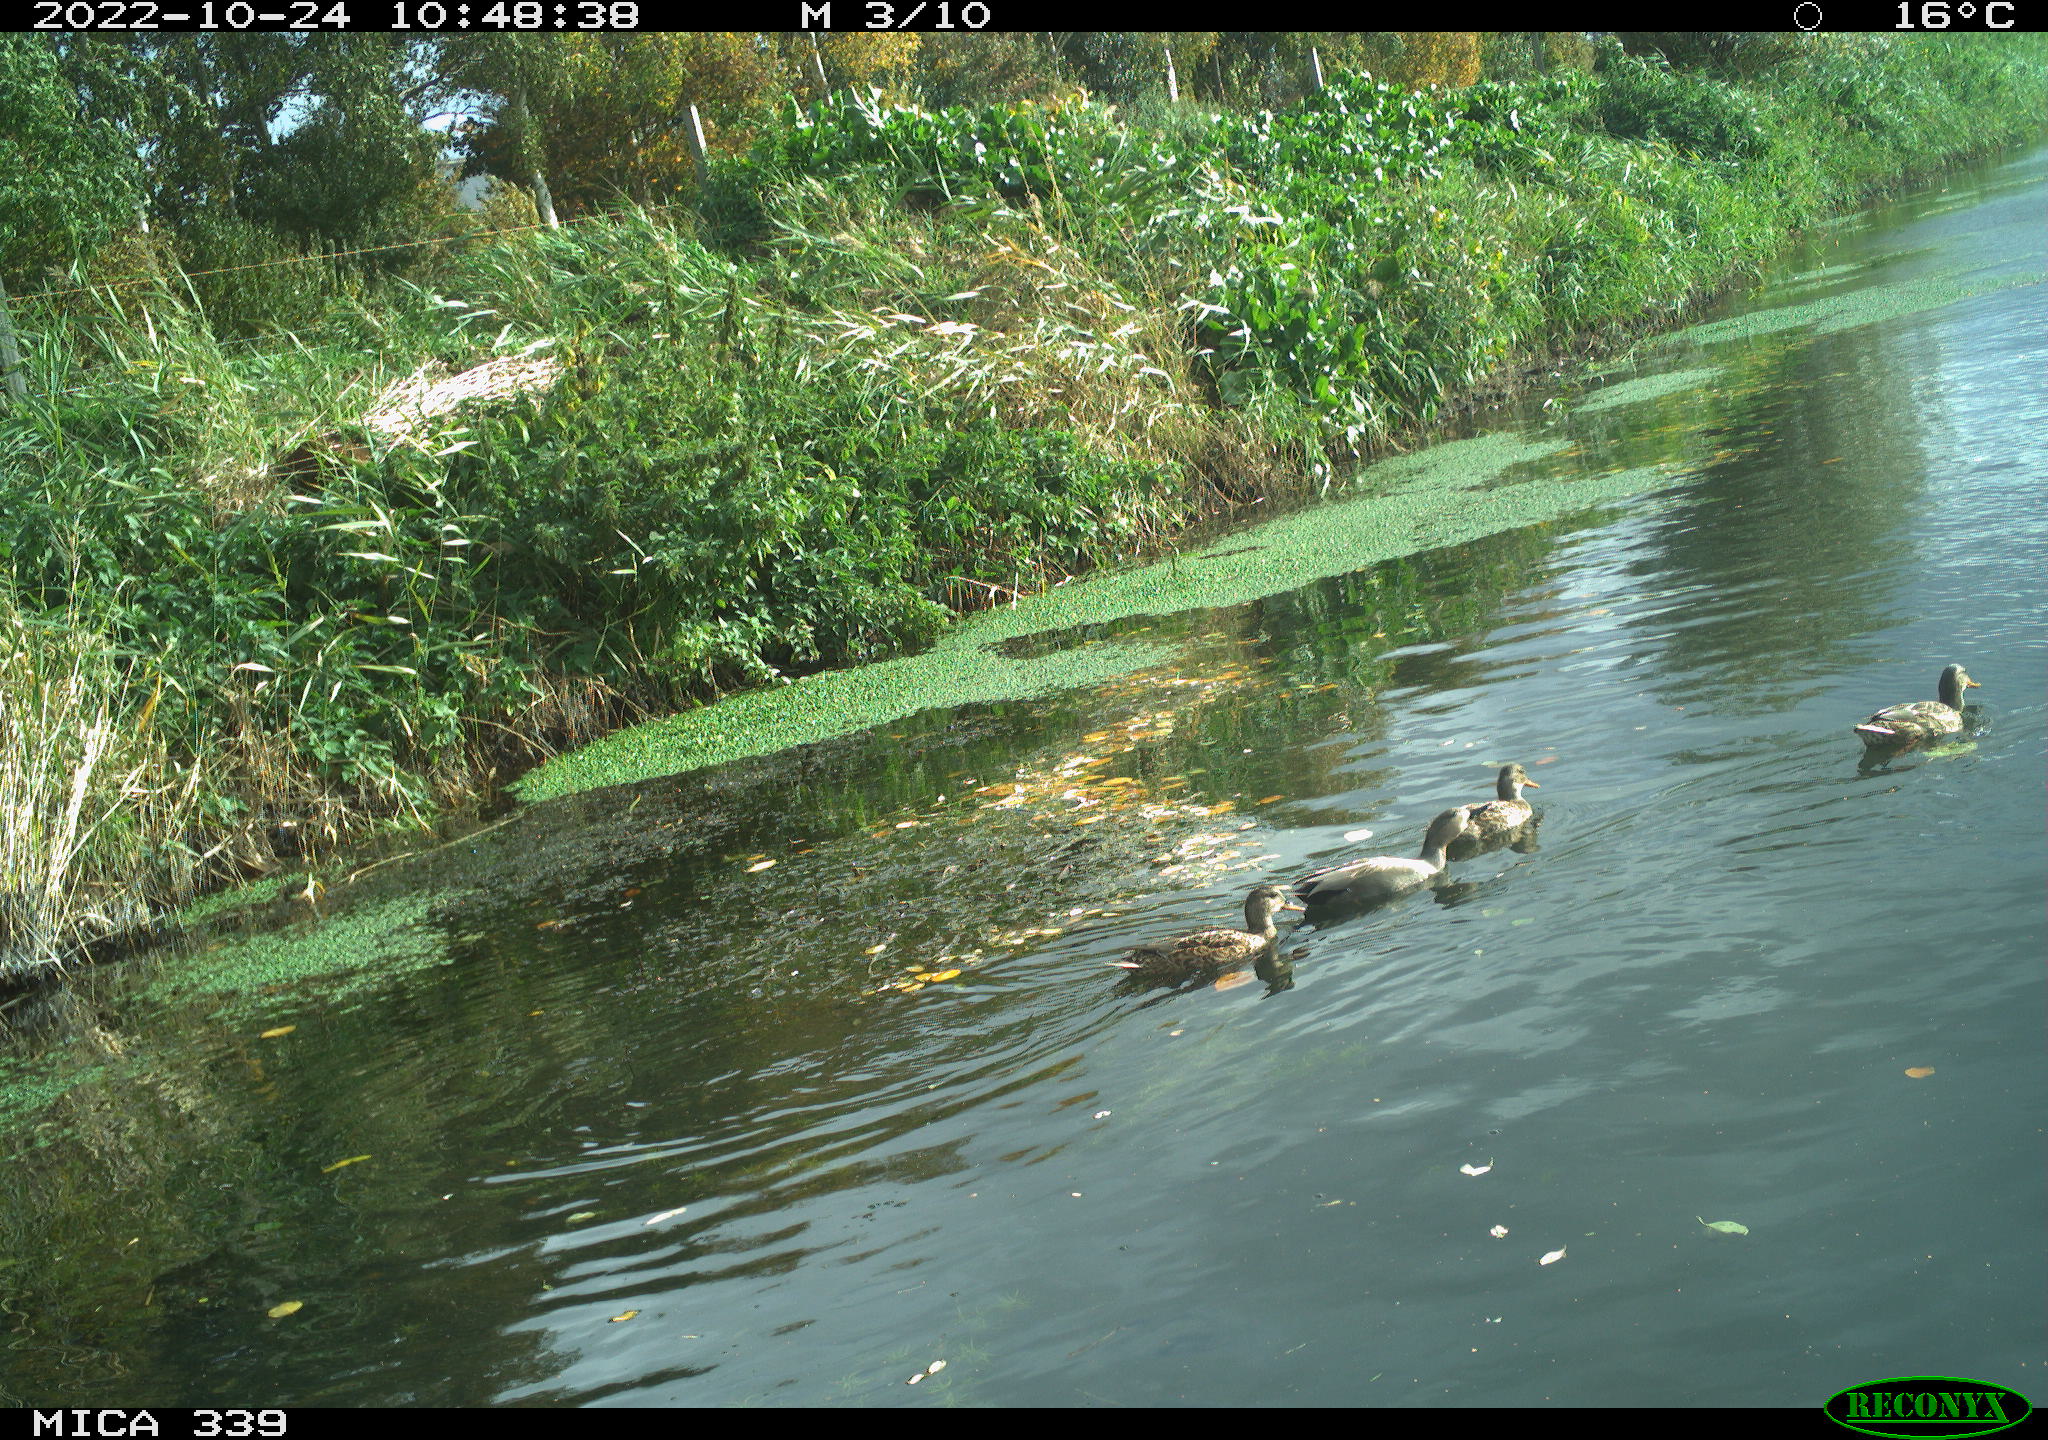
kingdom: Animalia
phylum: Chordata
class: Aves
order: Anseriformes
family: Anatidae
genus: Mareca
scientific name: Mareca strepera
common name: Gadwall
